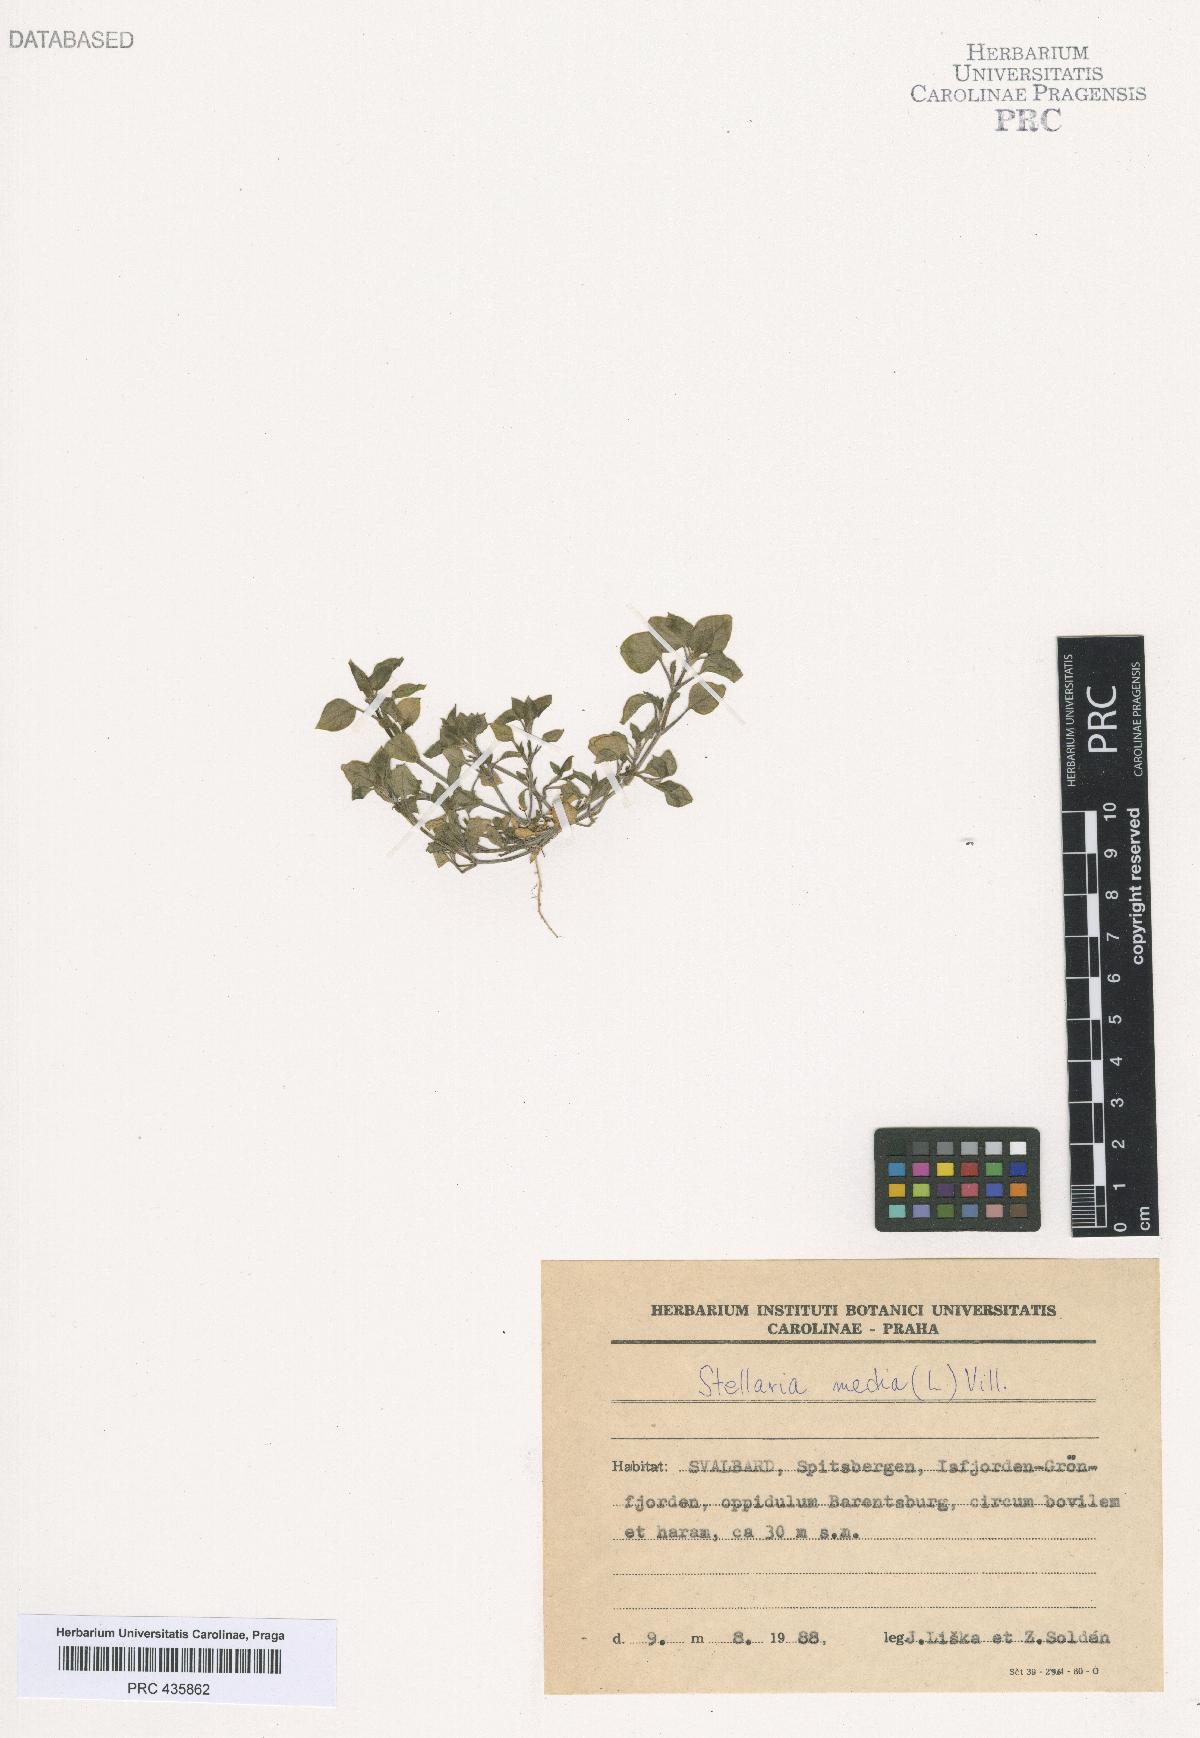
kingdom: Plantae
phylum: Tracheophyta
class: Magnoliopsida
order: Caryophyllales
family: Caryophyllaceae
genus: Stellaria
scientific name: Stellaria media
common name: Common chickweed
